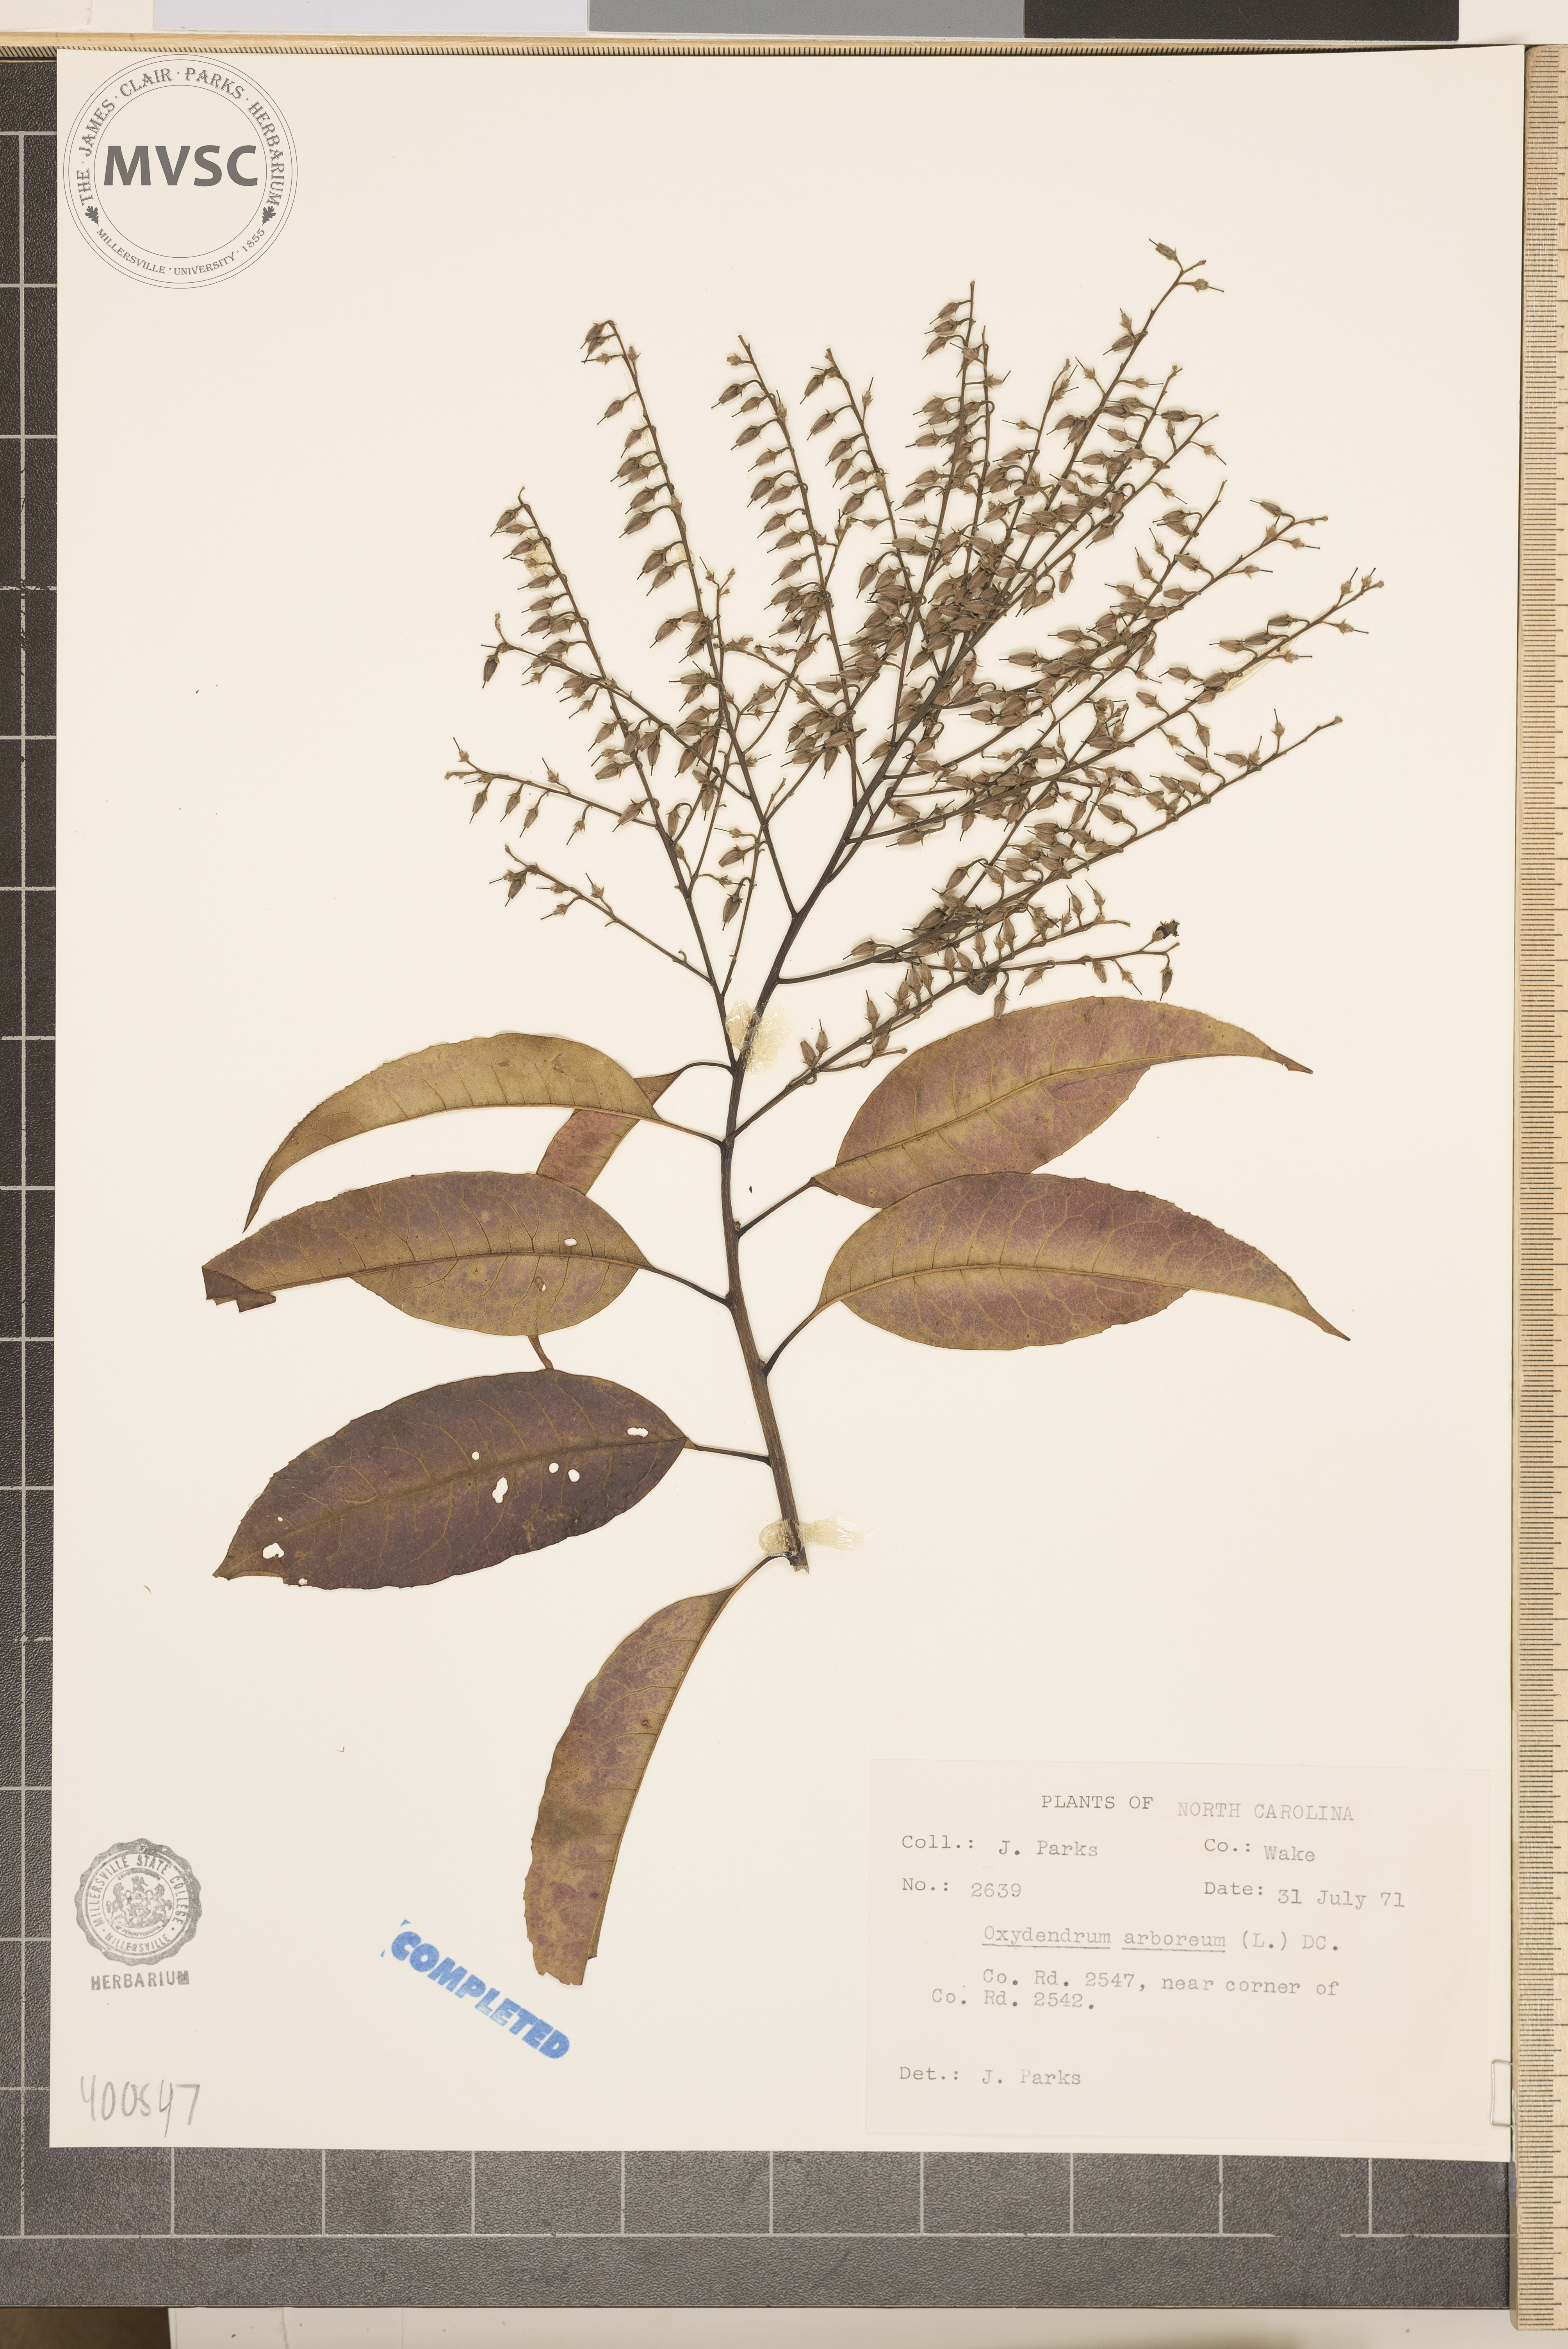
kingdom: Plantae
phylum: Tracheophyta
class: Magnoliopsida
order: Ericales
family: Ericaceae
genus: Oxydendrum
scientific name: Oxydendrum arboreum
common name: Sourwood
